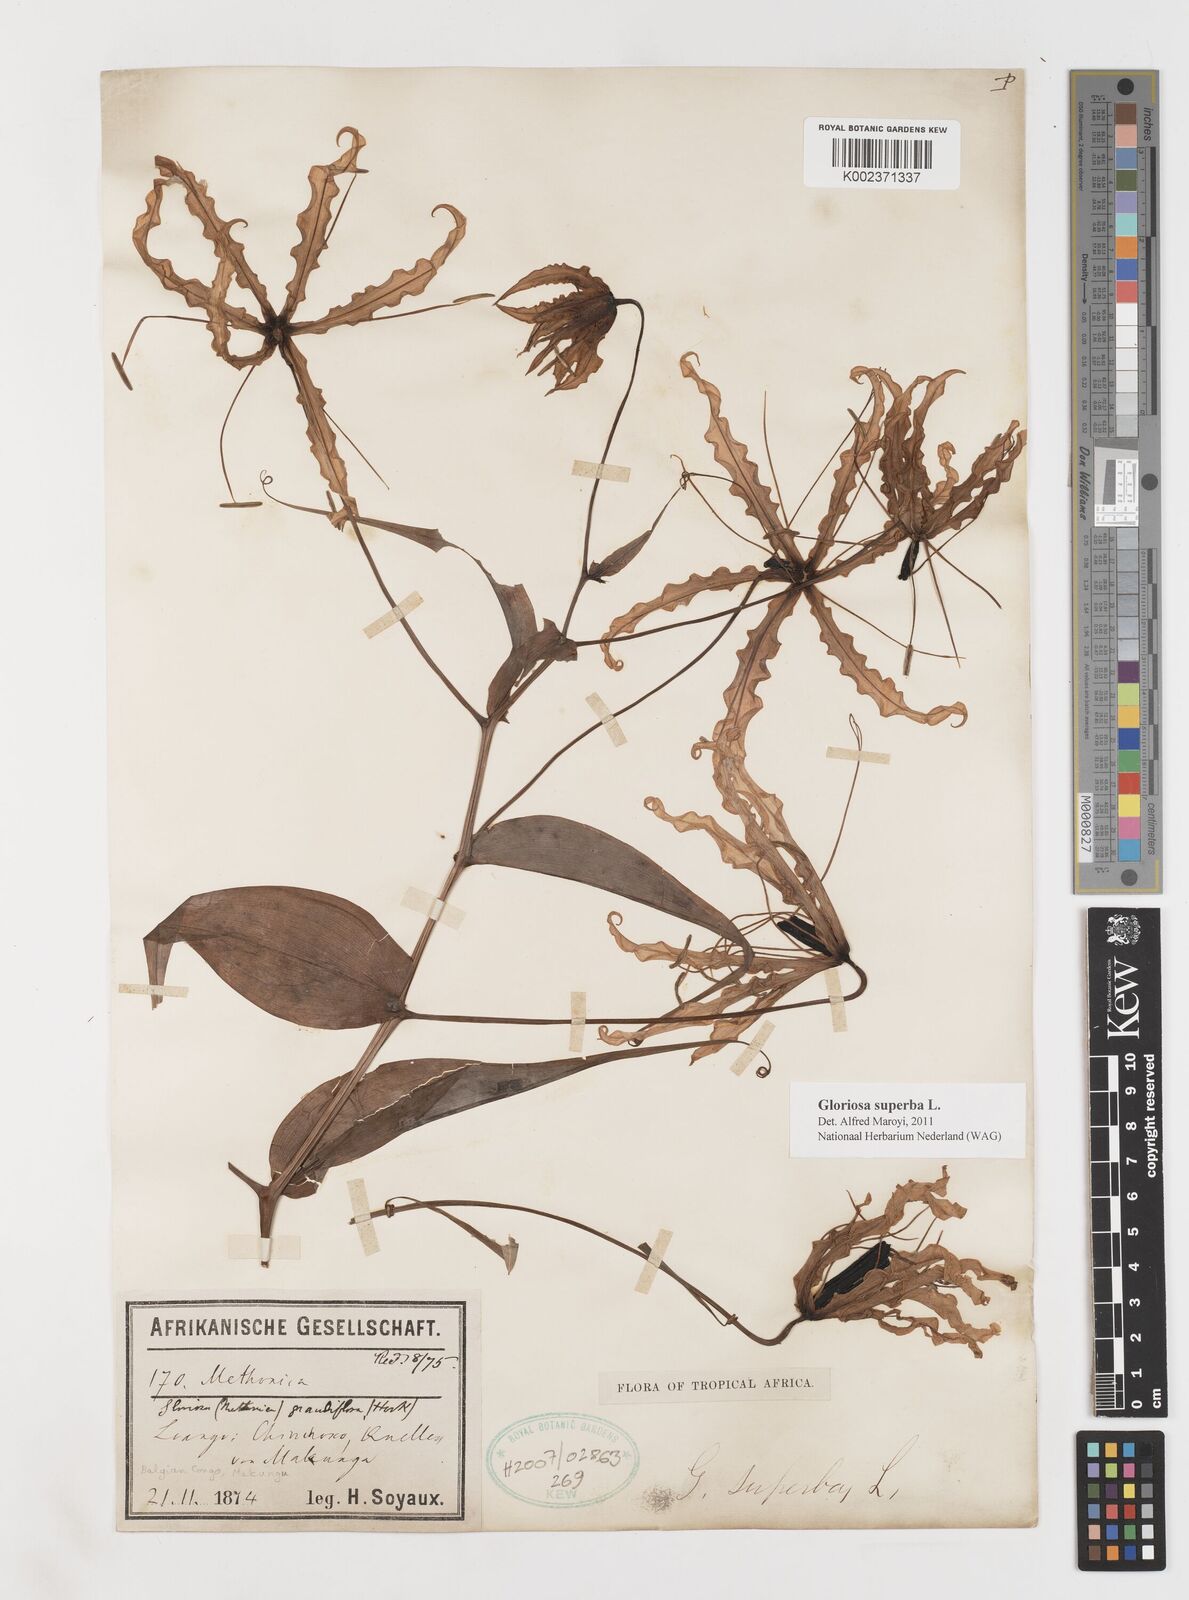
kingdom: Plantae
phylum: Tracheophyta
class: Liliopsida
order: Liliales
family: Colchicaceae
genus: Gloriosa
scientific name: Gloriosa superba
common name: Flame lily
